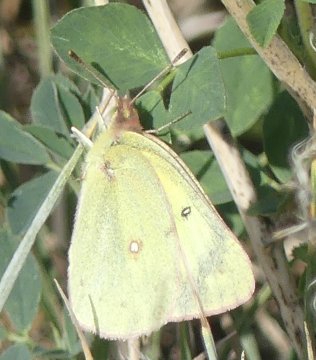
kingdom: Animalia
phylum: Arthropoda
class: Insecta
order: Lepidoptera
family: Pieridae
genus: Colias
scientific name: Colias philodice
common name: Clouded Sulphur
